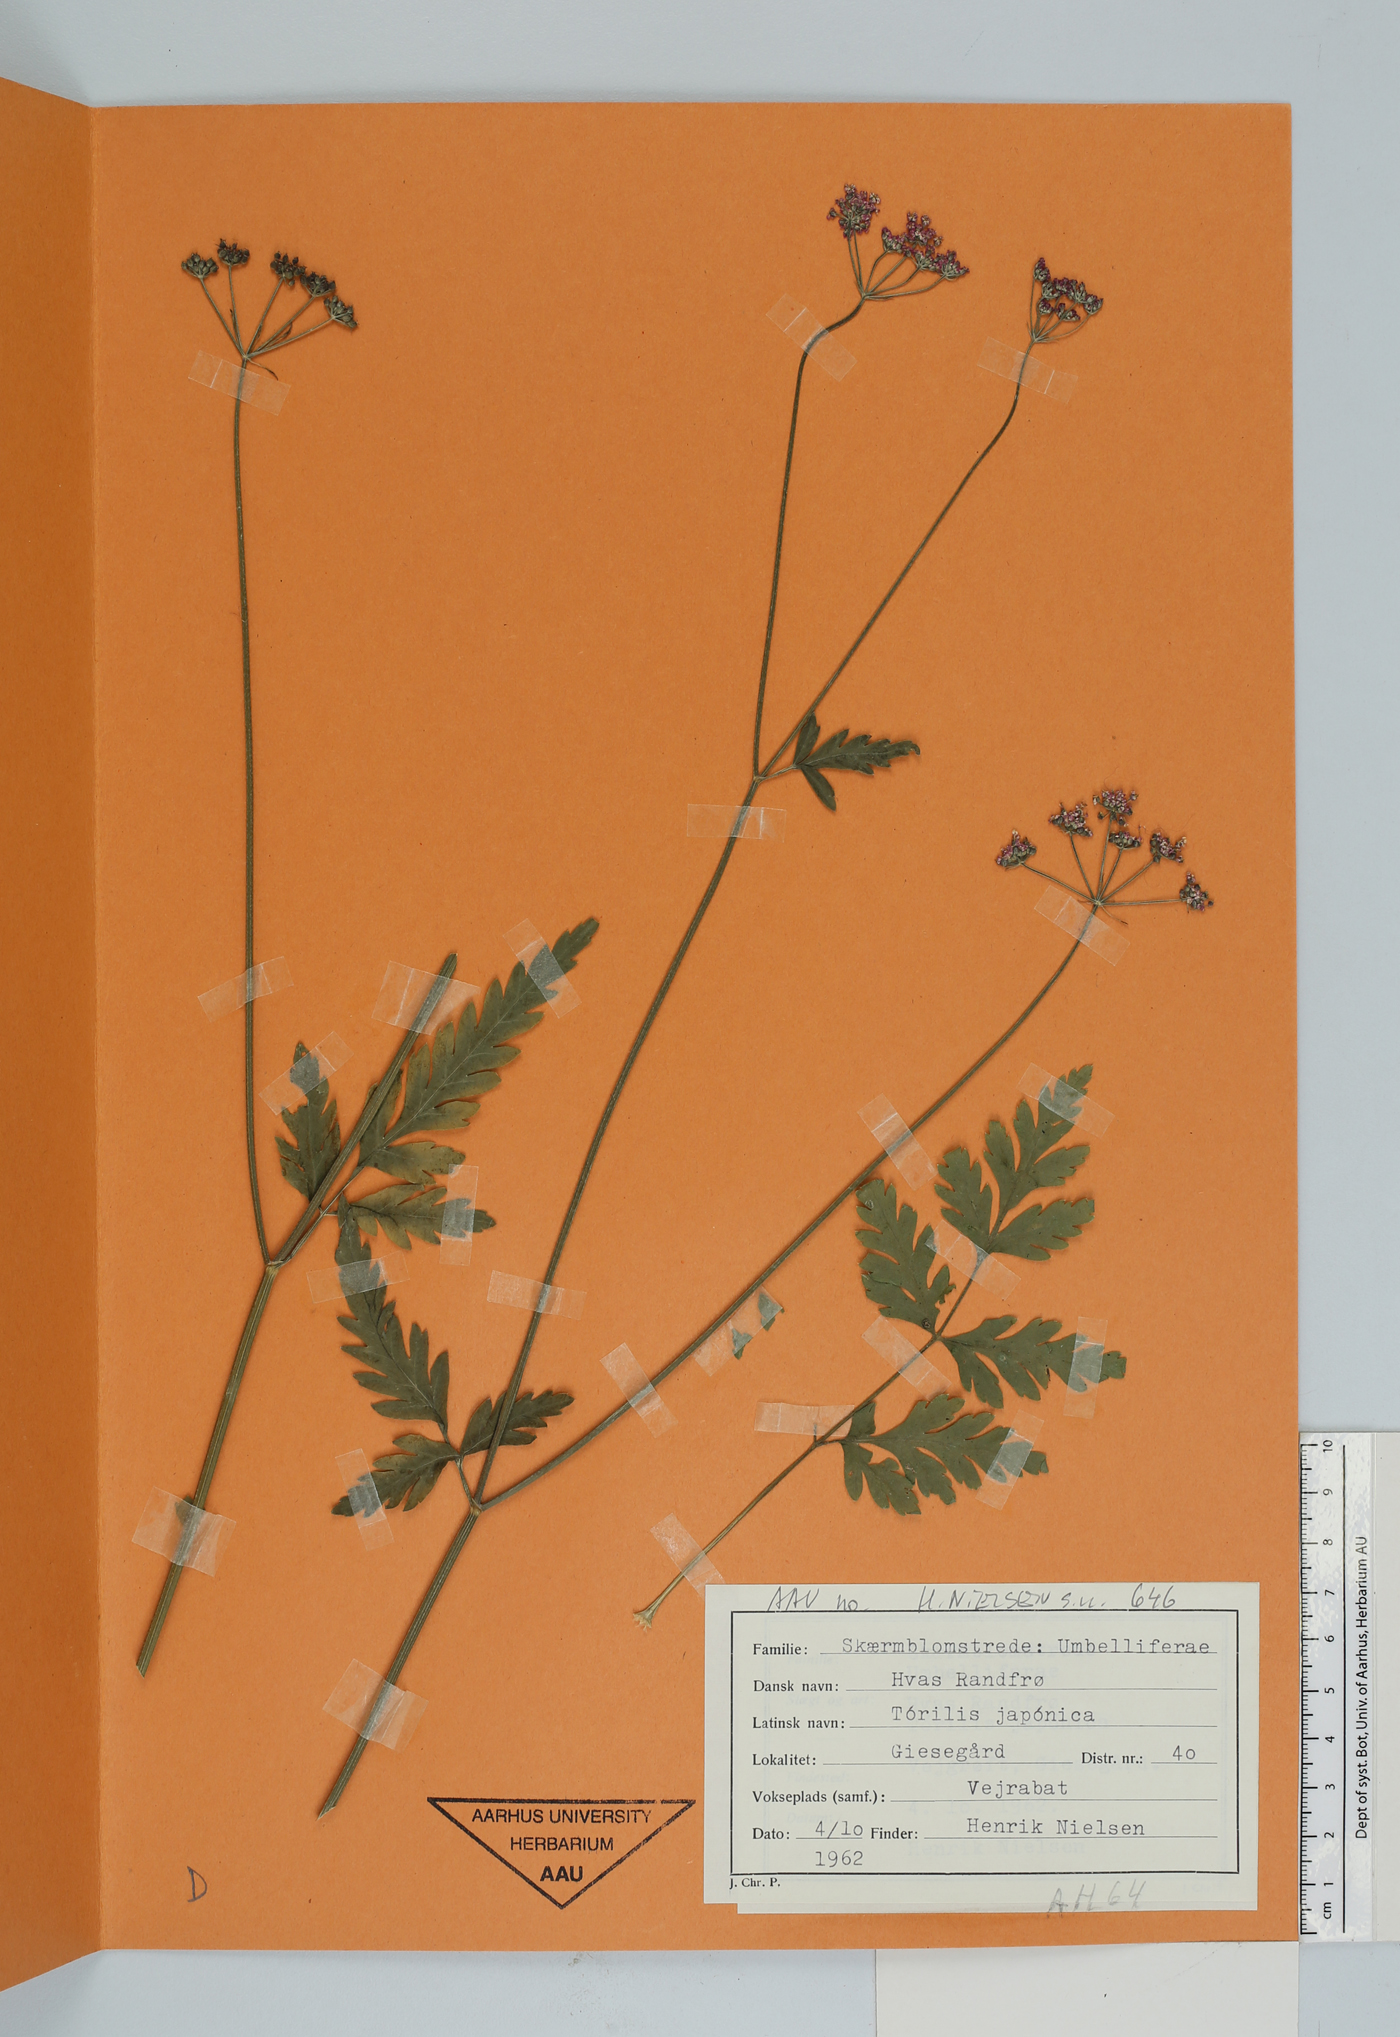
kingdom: Plantae
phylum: Tracheophyta
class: Magnoliopsida
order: Apiales
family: Apiaceae
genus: Torilis
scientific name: Torilis japonica
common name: Upright hedge-parsley
